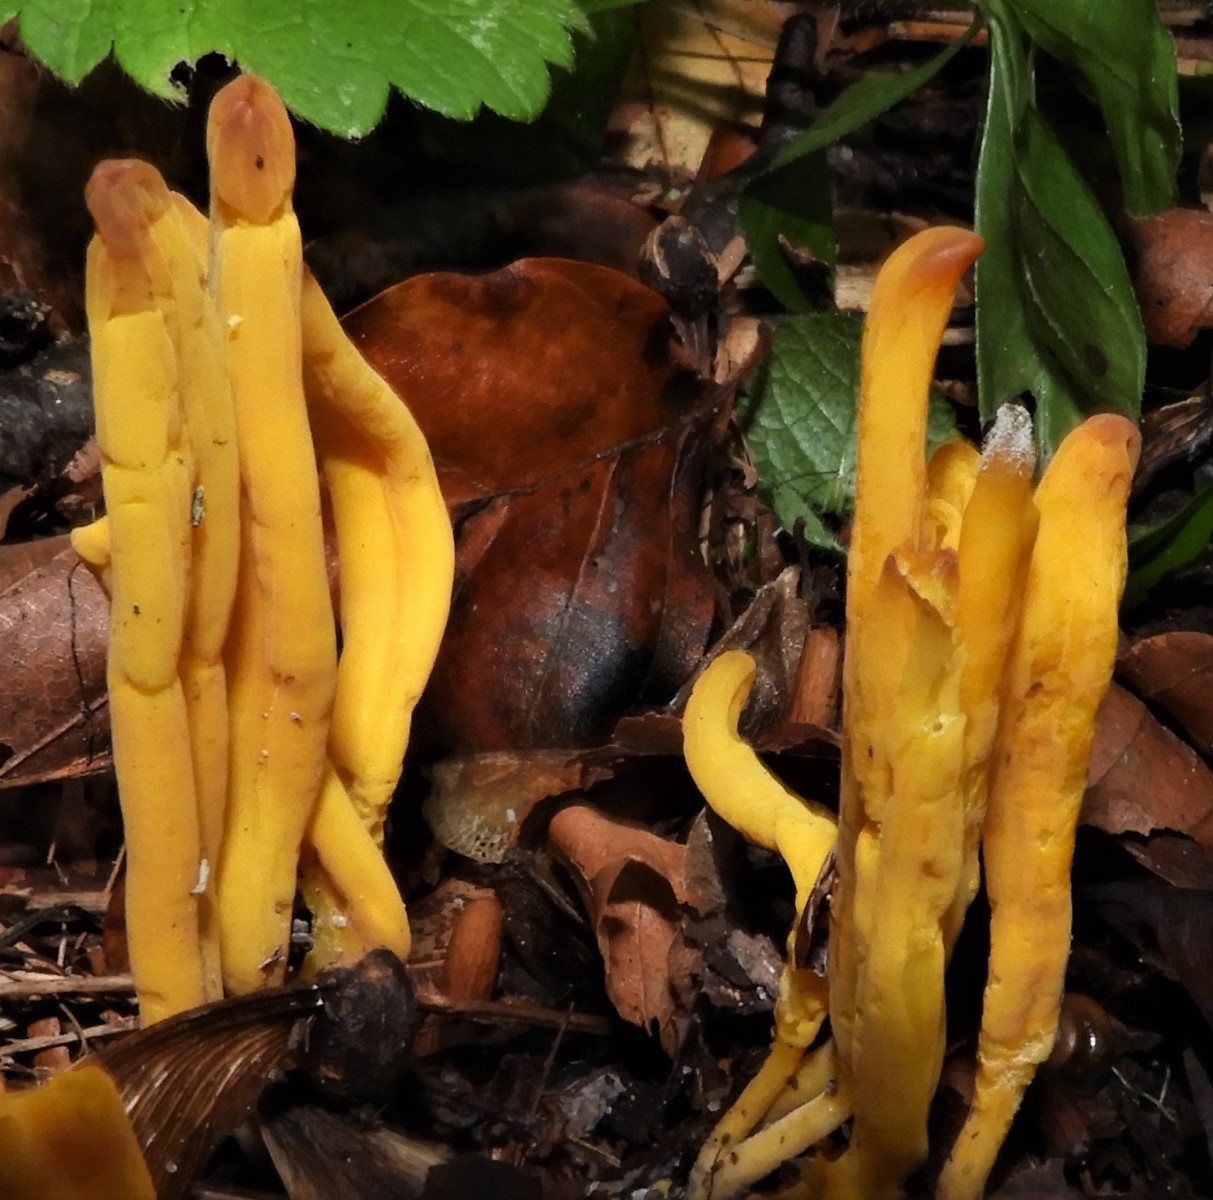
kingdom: Fungi
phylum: Basidiomycota
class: Agaricomycetes
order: Agaricales
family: Clavariaceae
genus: Clavulinopsis
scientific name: Clavulinopsis
